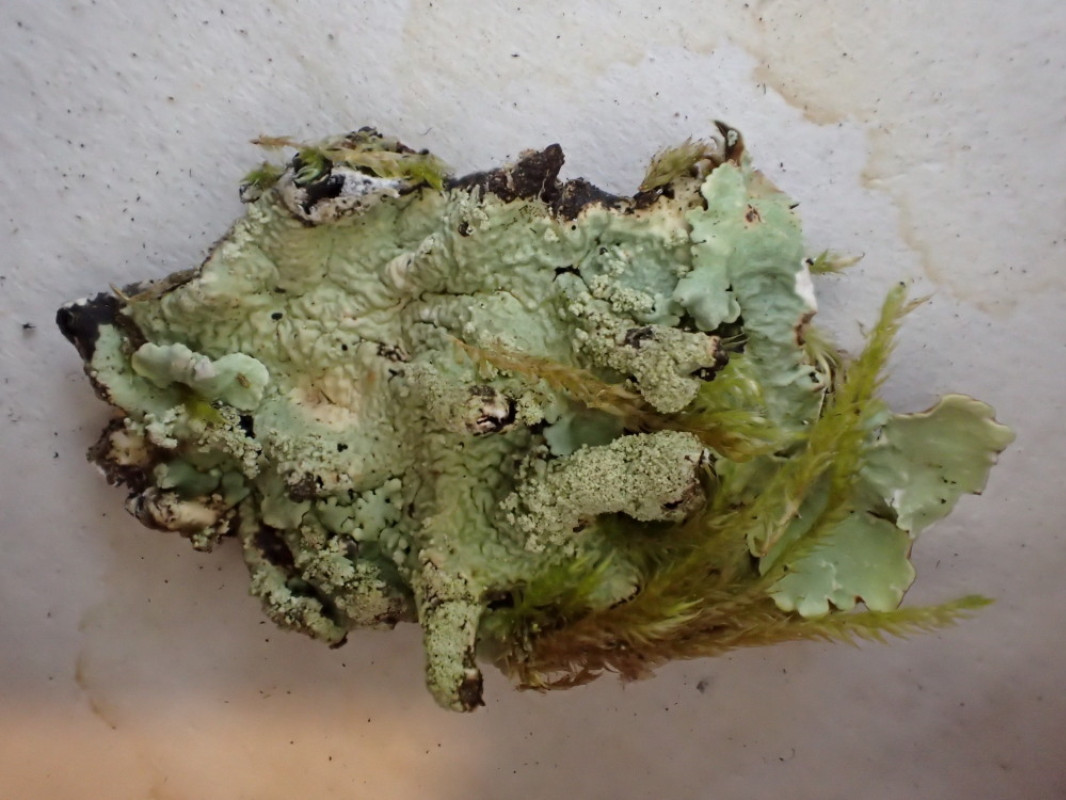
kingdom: Fungi
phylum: Ascomycota
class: Lecanoromycetes
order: Lecanorales
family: Parmeliaceae
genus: Hypotrachyna
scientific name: Hypotrachyna afrorevoluta
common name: kyst-skållav
